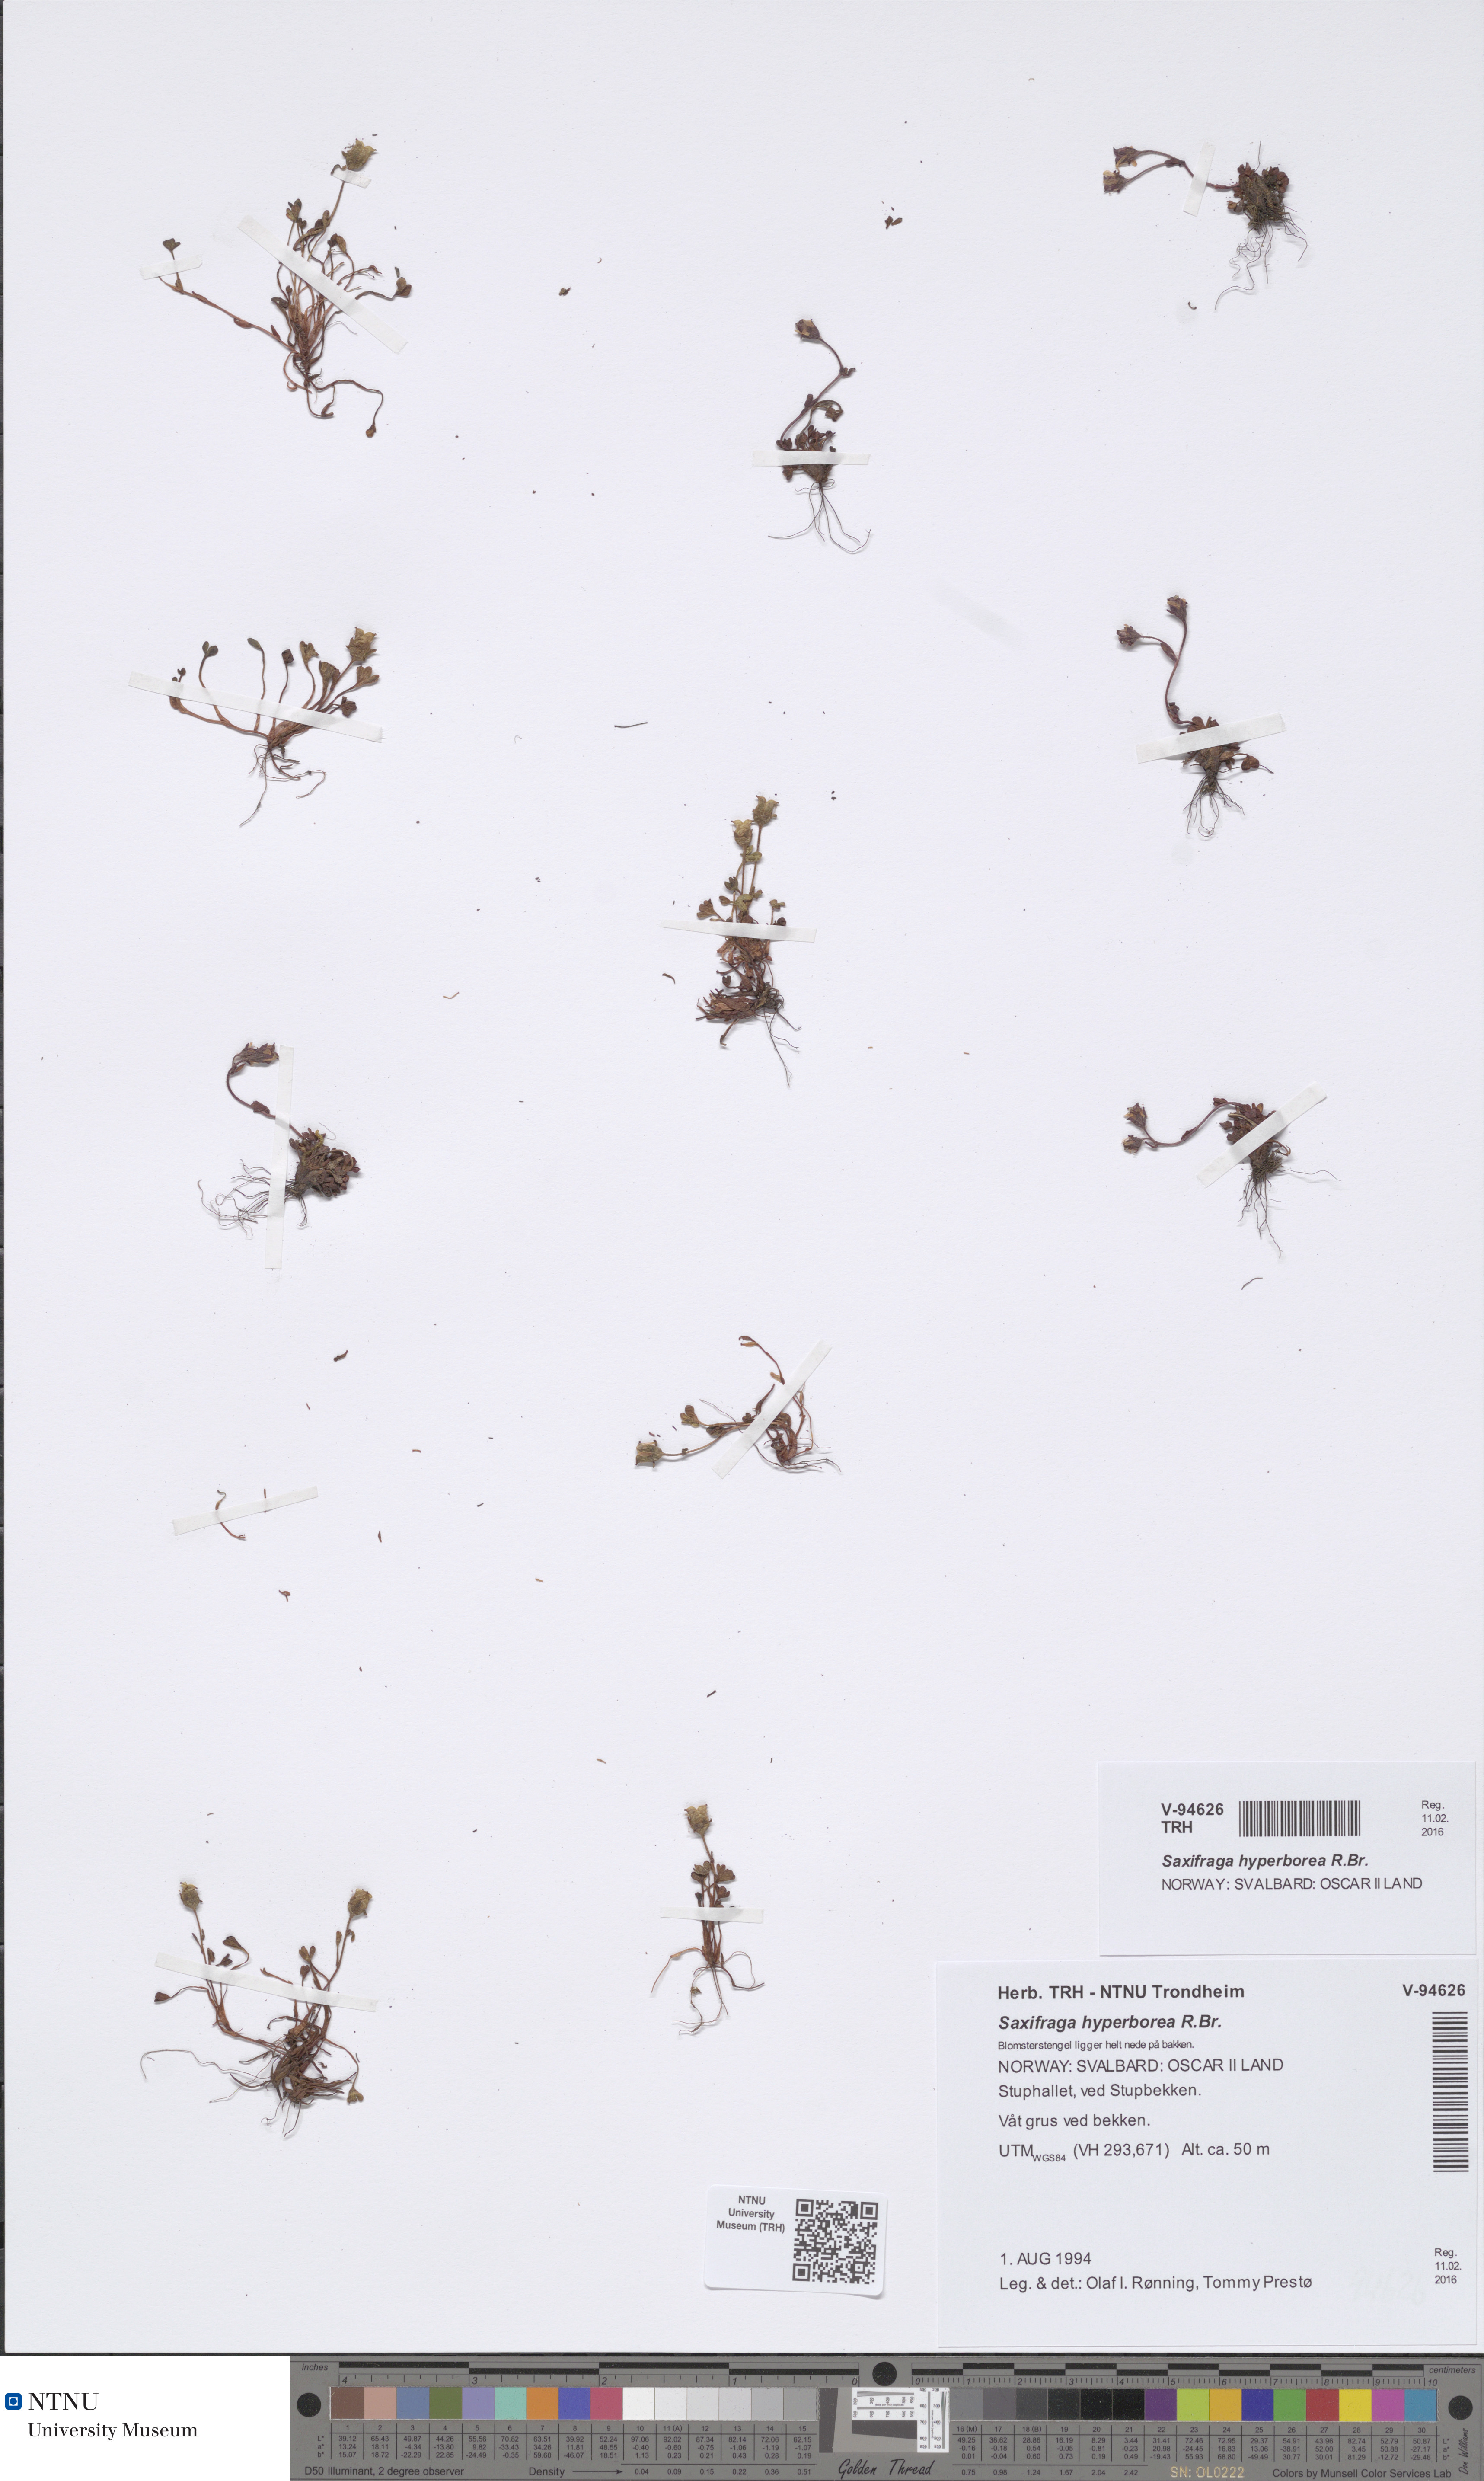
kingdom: Plantae
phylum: Tracheophyta
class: Magnoliopsida
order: Saxifragales
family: Saxifragaceae
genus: Saxifraga
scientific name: Saxifraga hyperborea
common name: Arctic saxifrage
